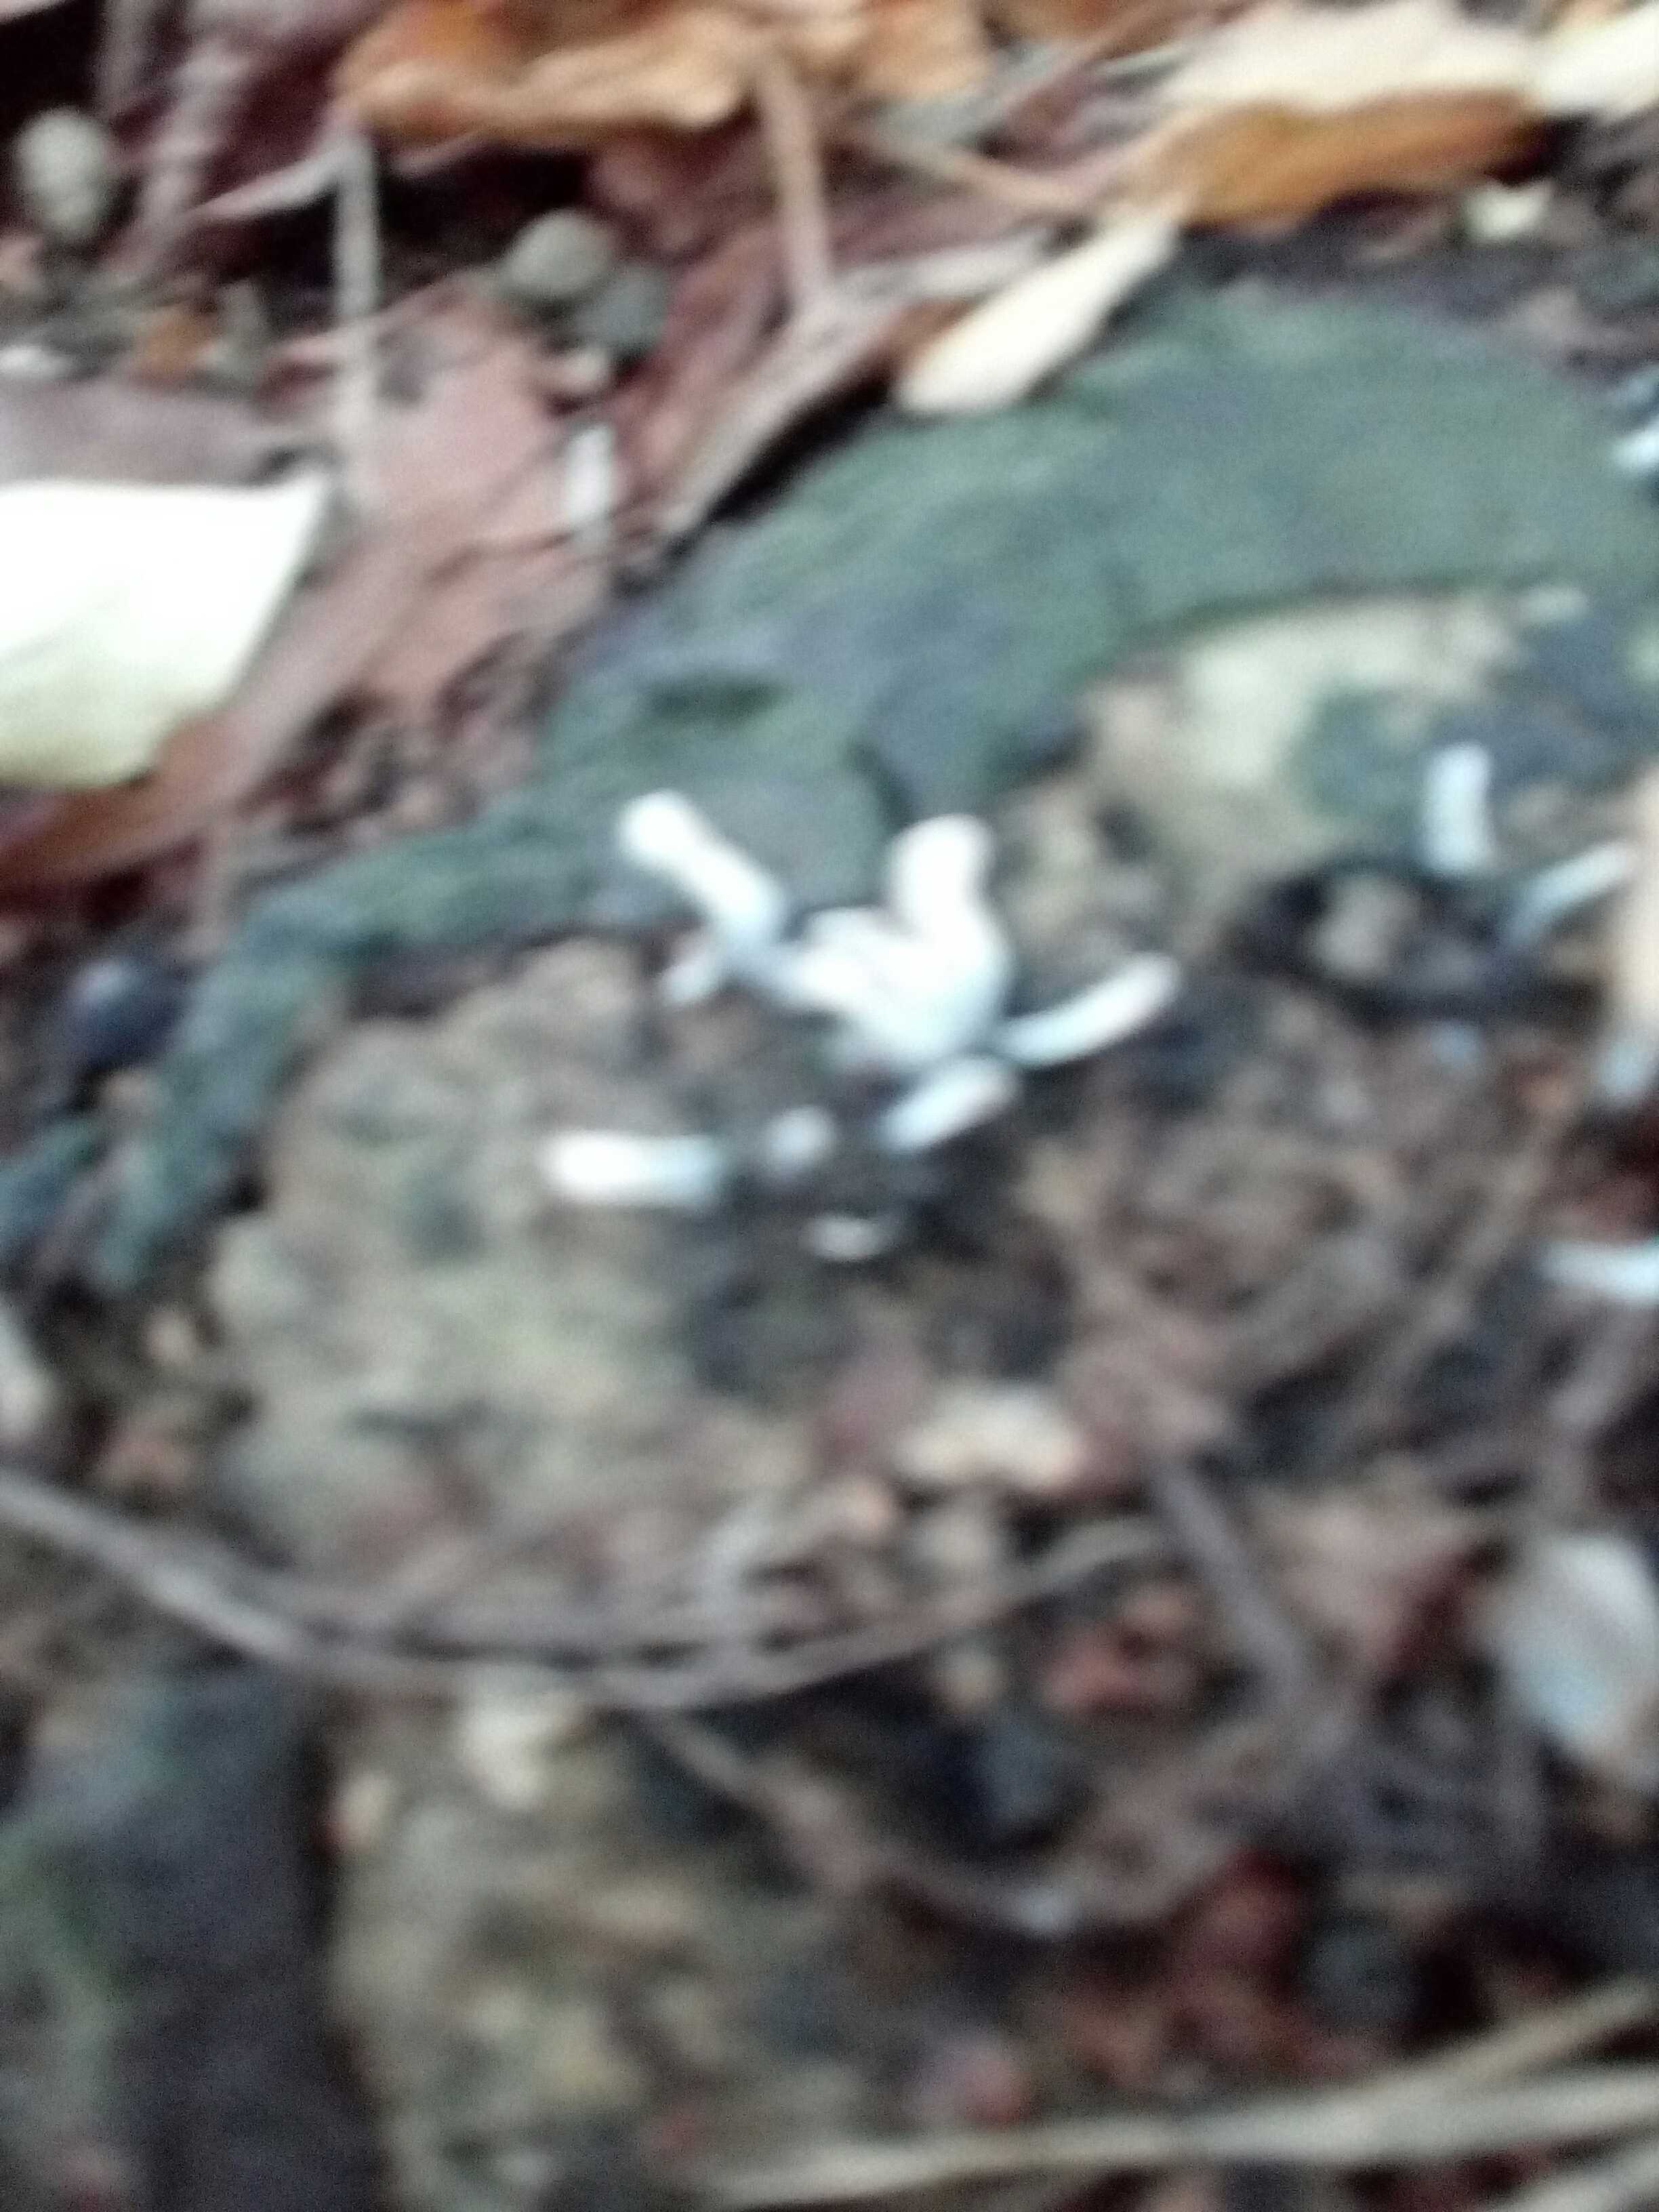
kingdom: Fungi
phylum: Ascomycota
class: Sordariomycetes
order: Xylariales
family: Xylariaceae
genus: Xylaria
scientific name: Xylaria hypoxylon
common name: grenet stødsvamp
